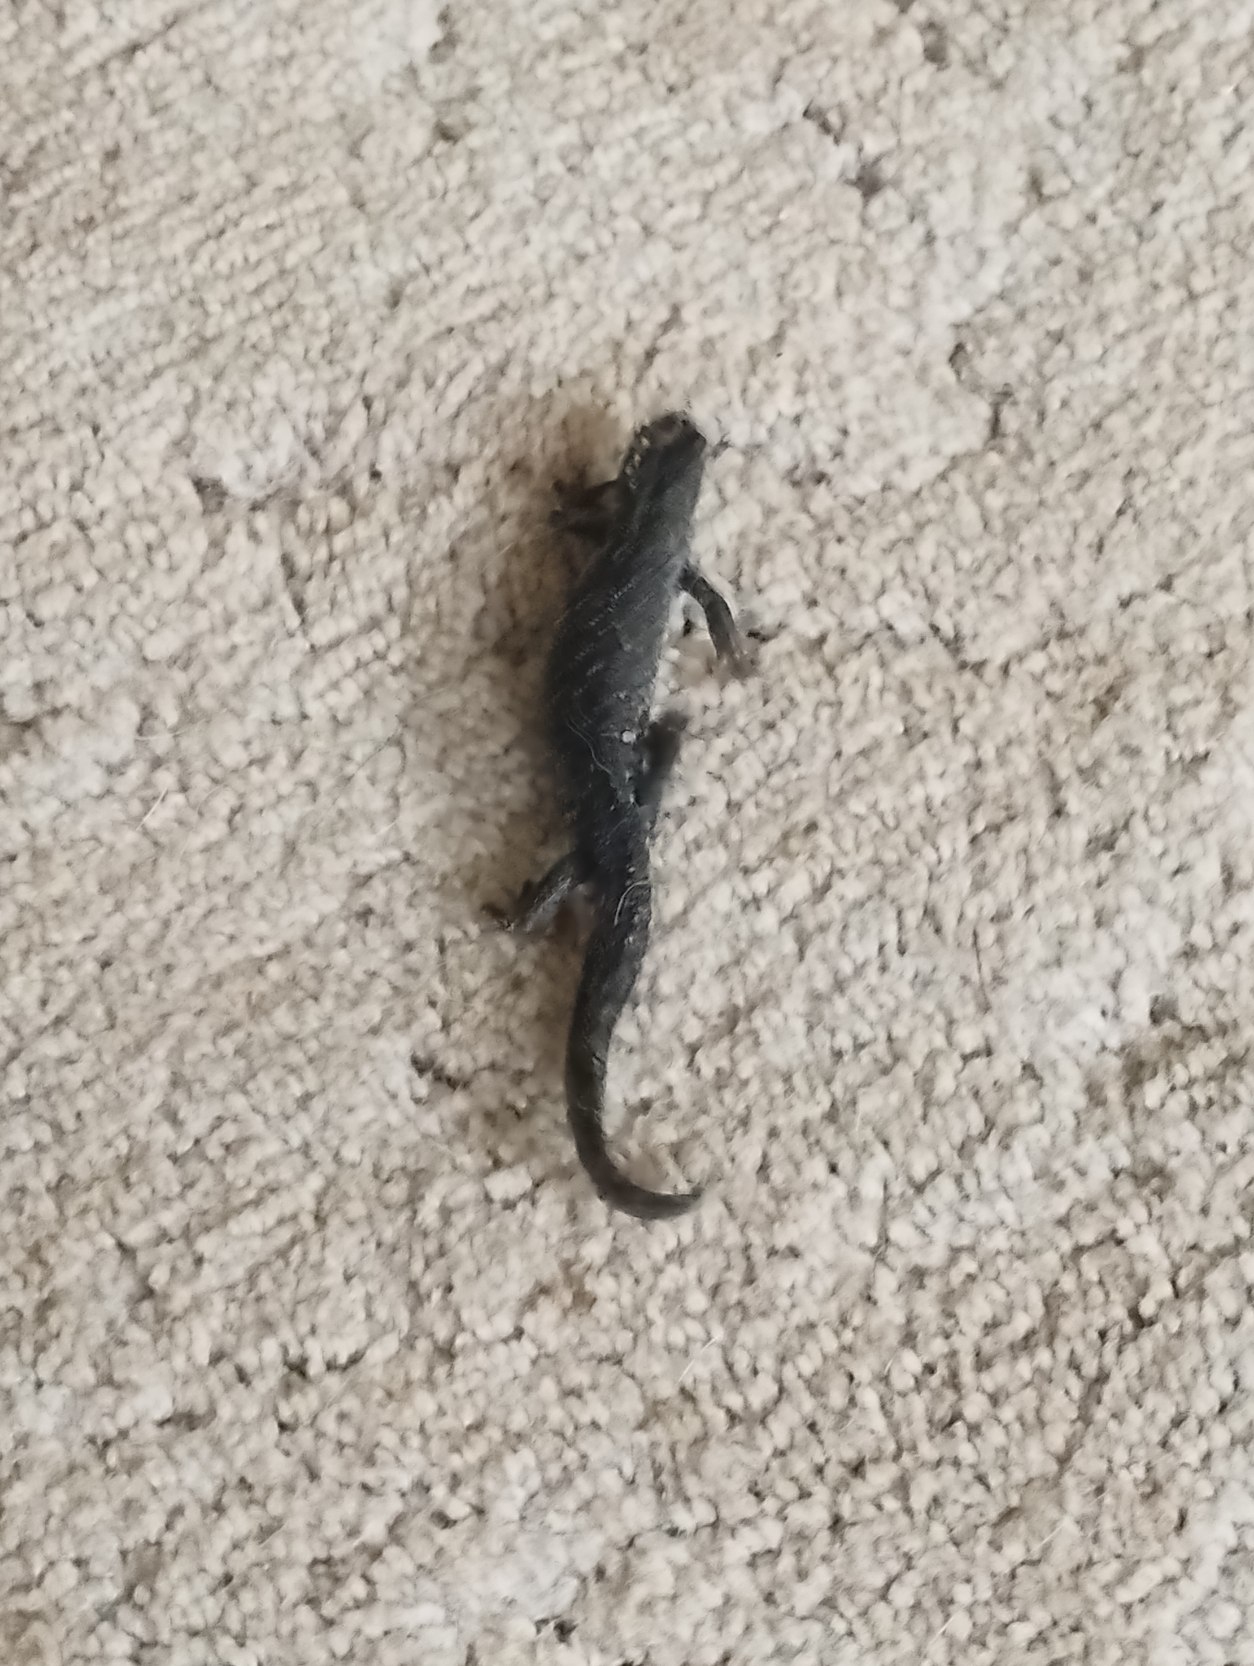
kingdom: Animalia
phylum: Chordata
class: Amphibia
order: Caudata
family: Salamandridae
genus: Triturus
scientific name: Triturus cristatus
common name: Stor vandsalamander
